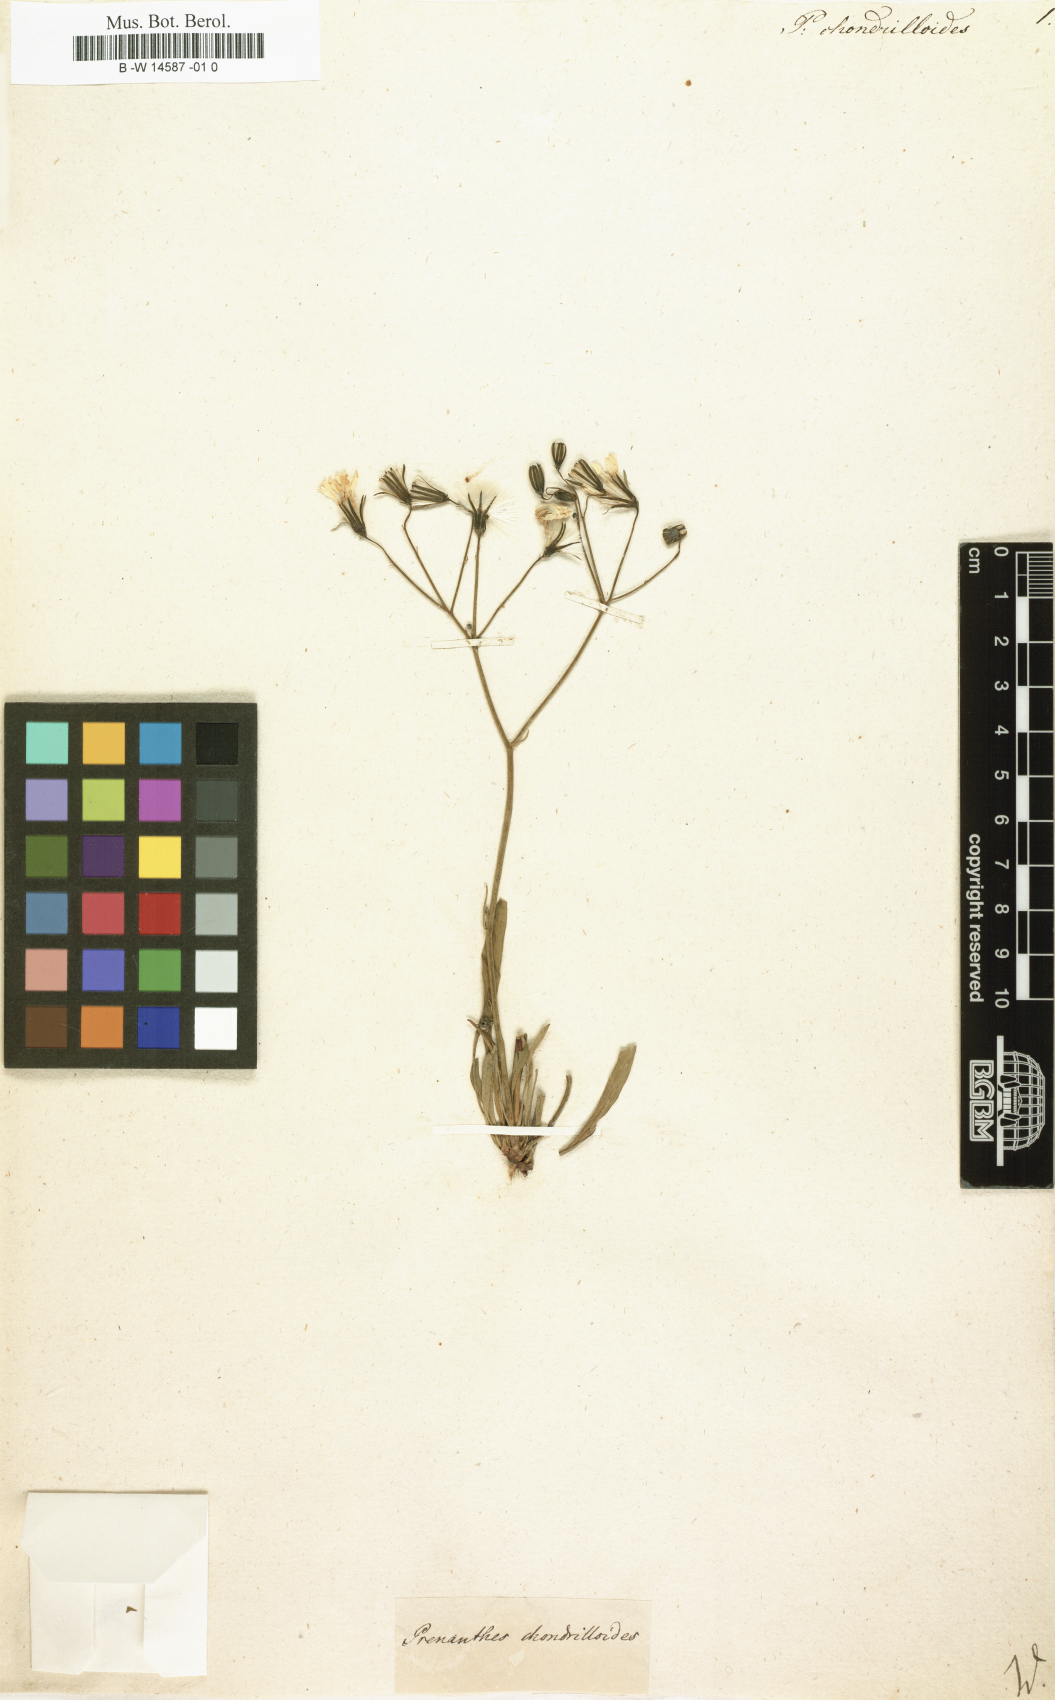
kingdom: Plantae
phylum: Tracheophyta
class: Magnoliopsida
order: Asterales
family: Asteraceae
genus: Prenanthes
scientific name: Prenanthes chondrilloides
